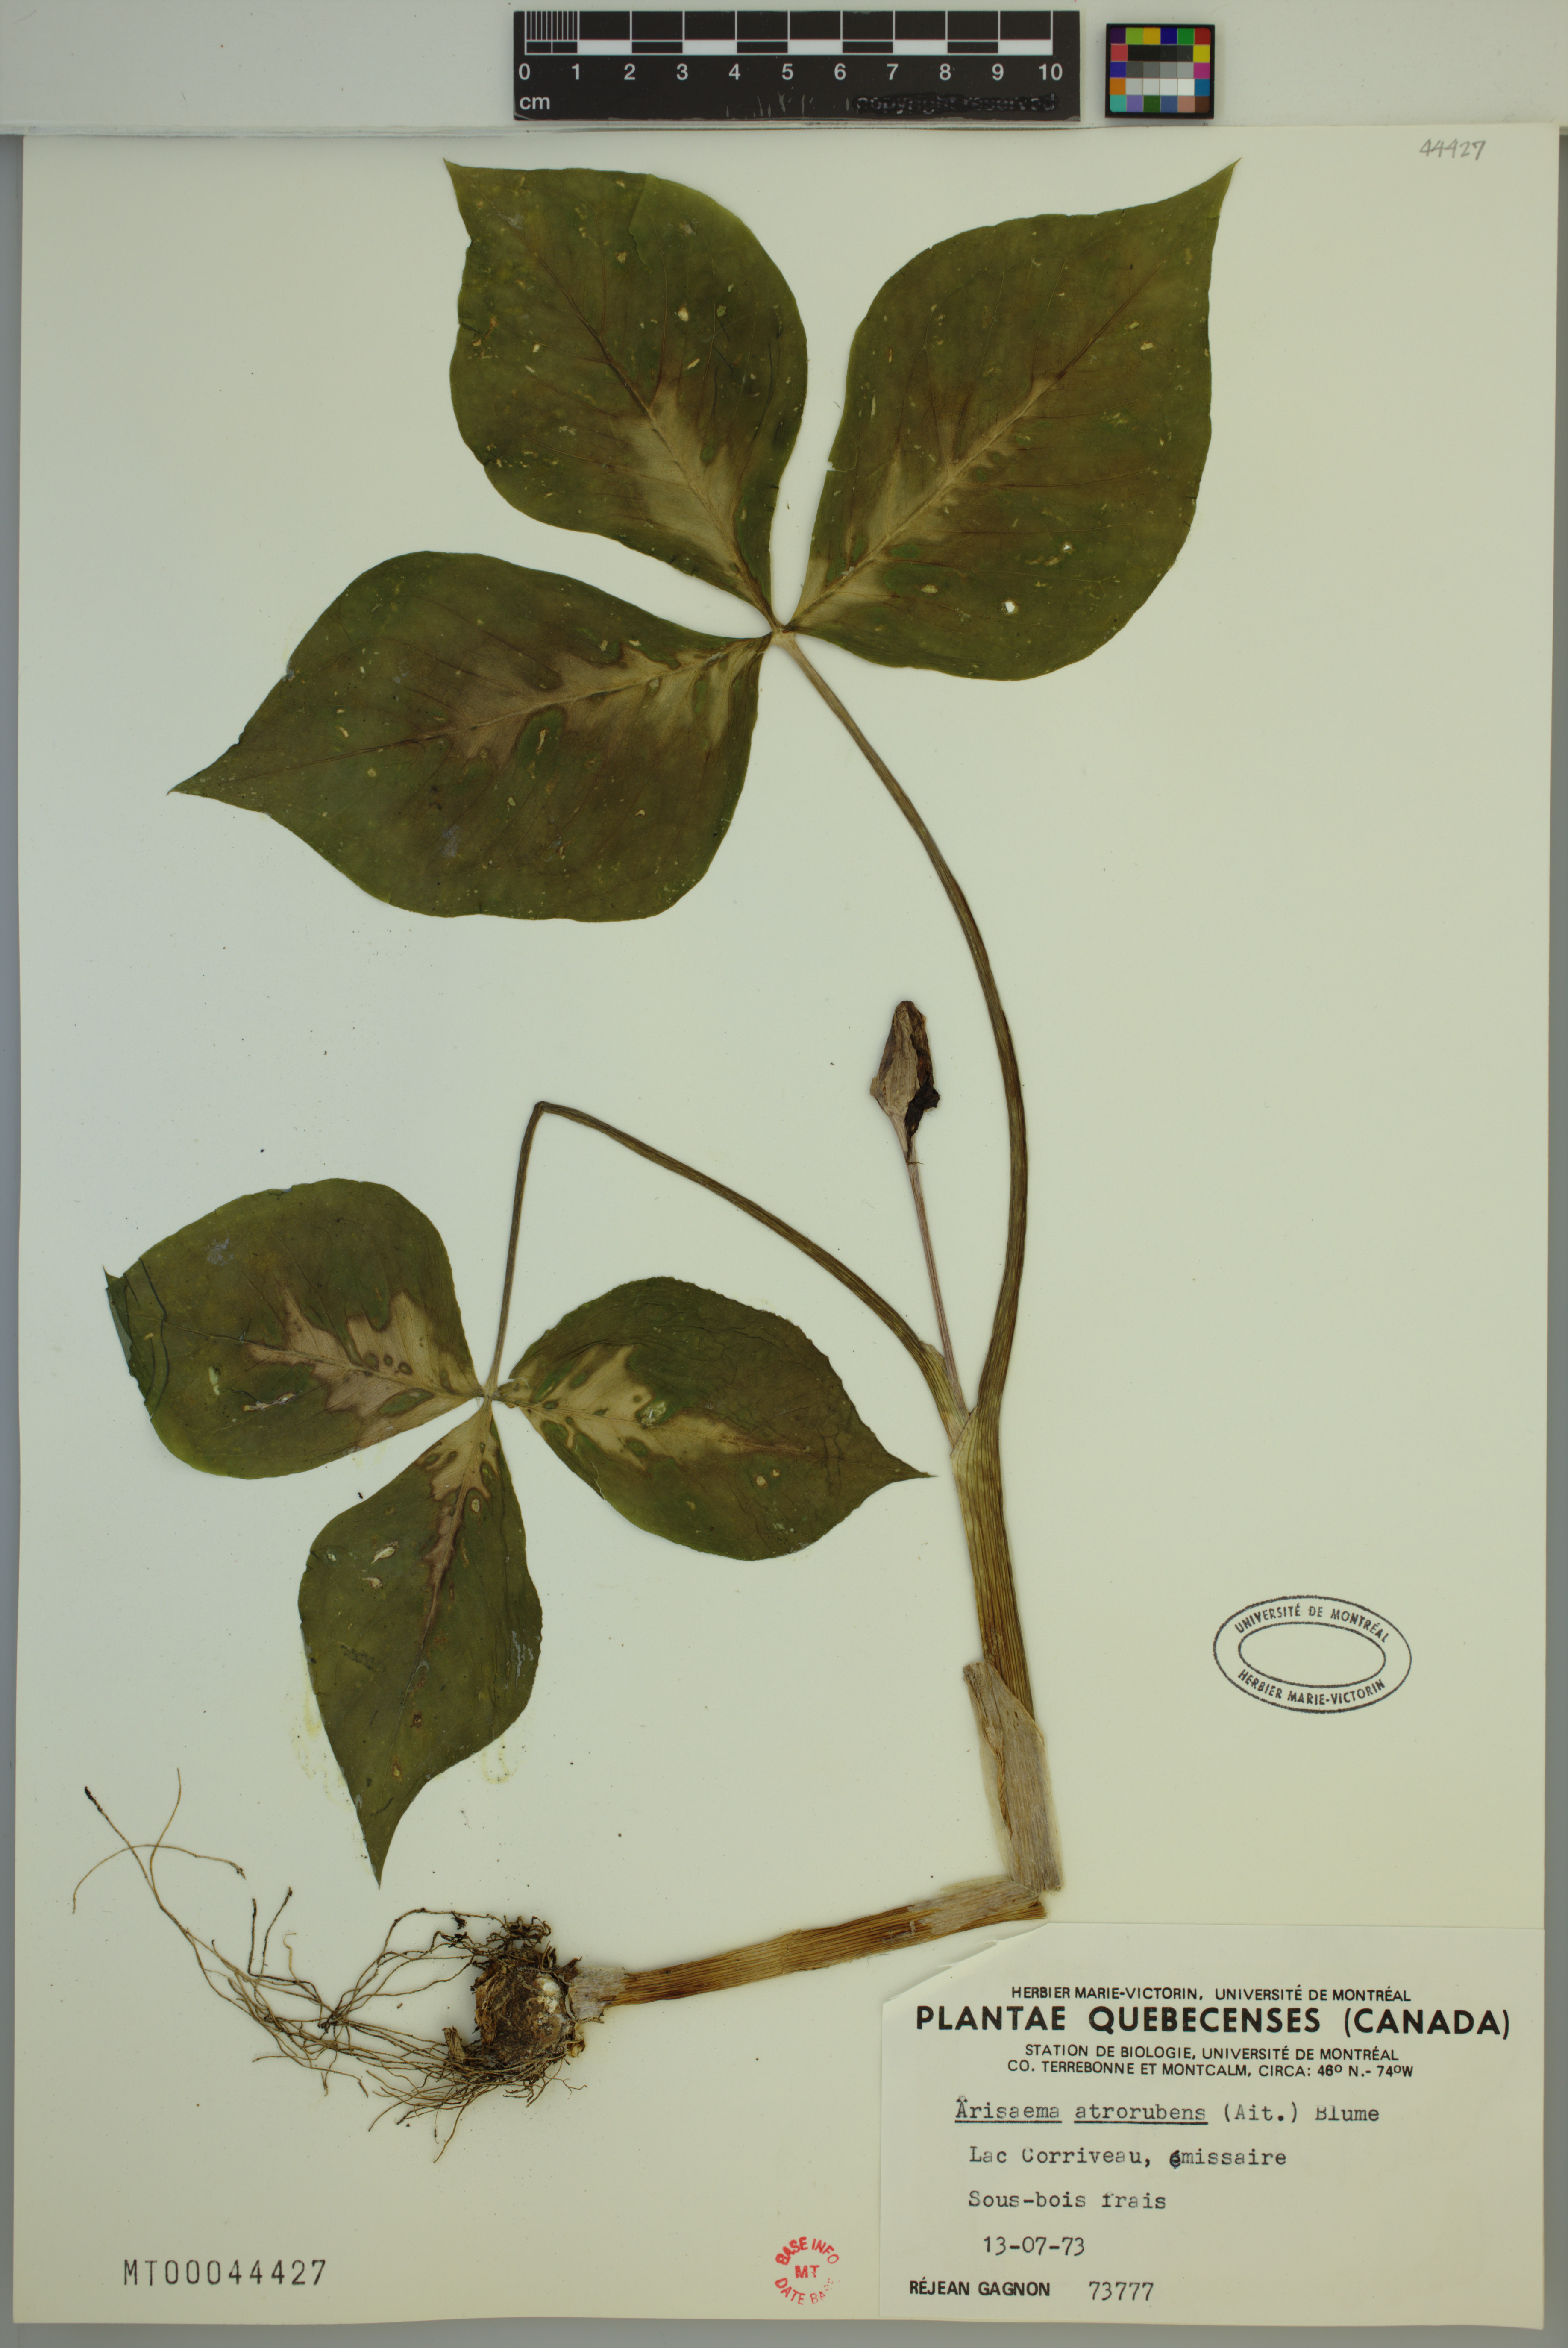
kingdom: Plantae
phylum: Tracheophyta
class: Liliopsida
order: Alismatales
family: Araceae
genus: Arisaema
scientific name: Arisaema triphyllum
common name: Jack-in-the-pulpit
